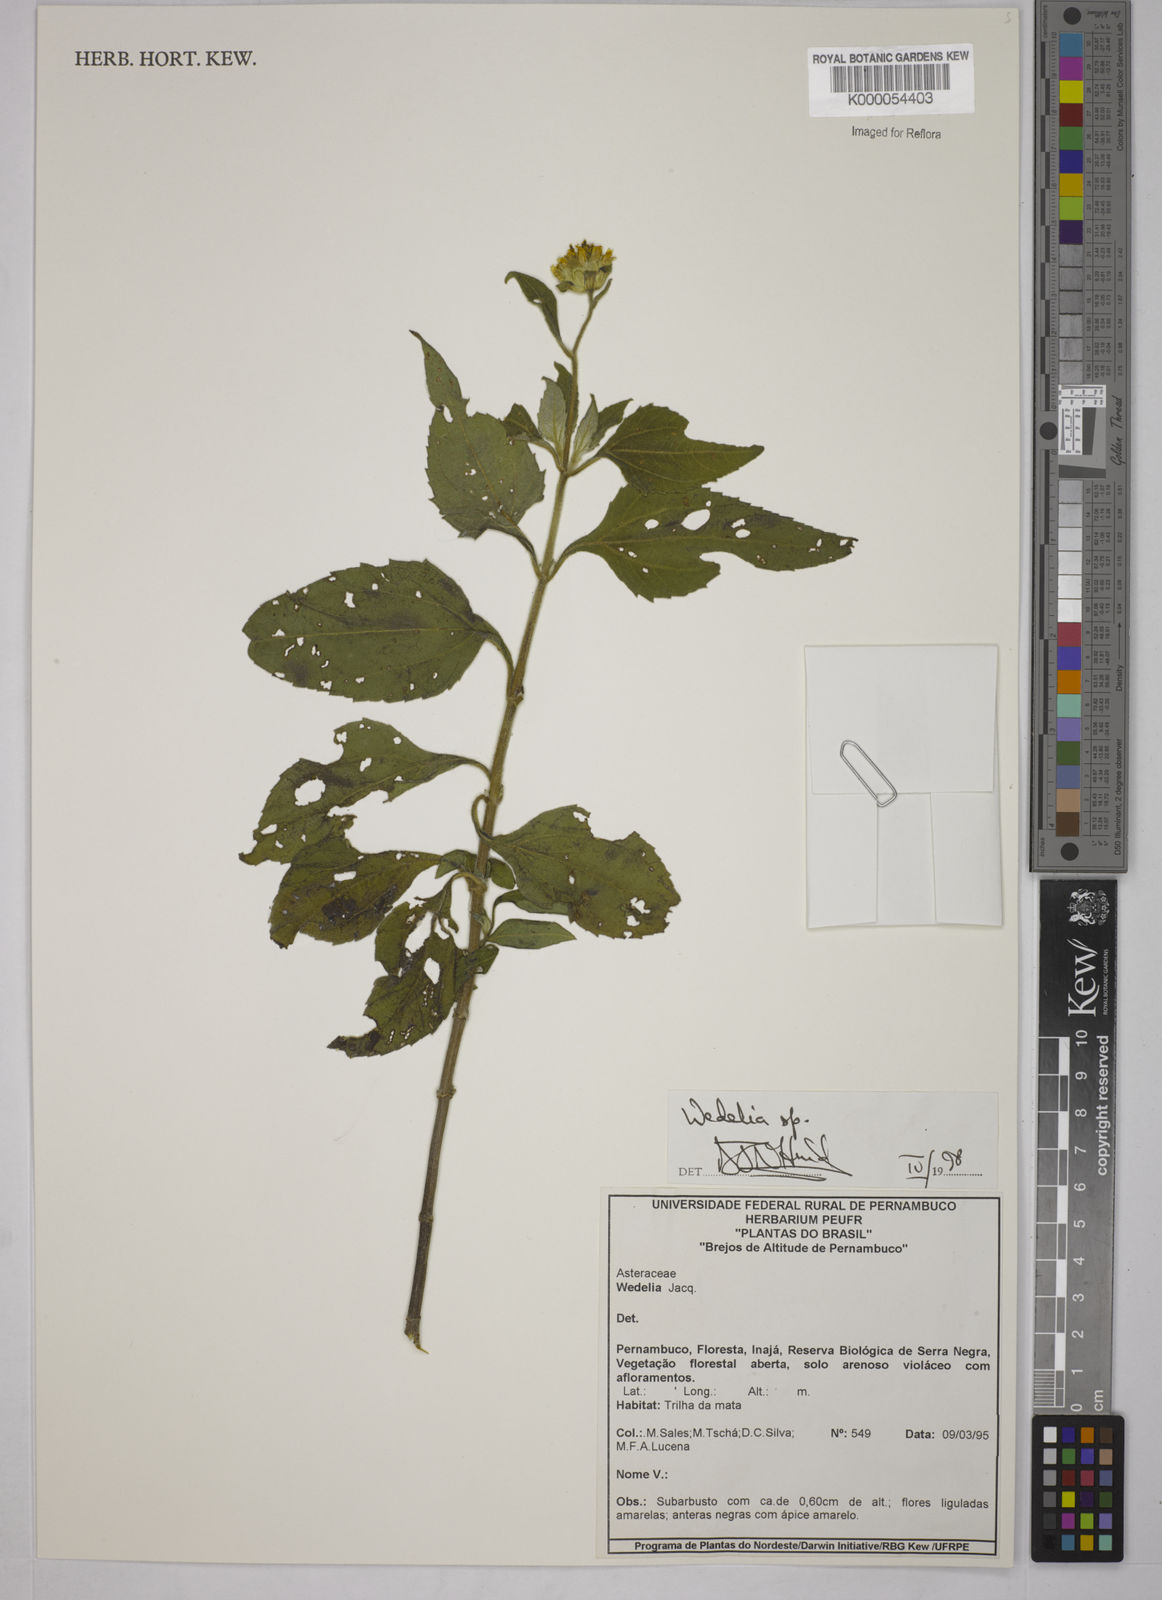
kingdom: Plantae
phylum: Tracheophyta
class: Magnoliopsida
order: Asterales
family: Asteraceae
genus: Wedelia
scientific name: Wedelia
